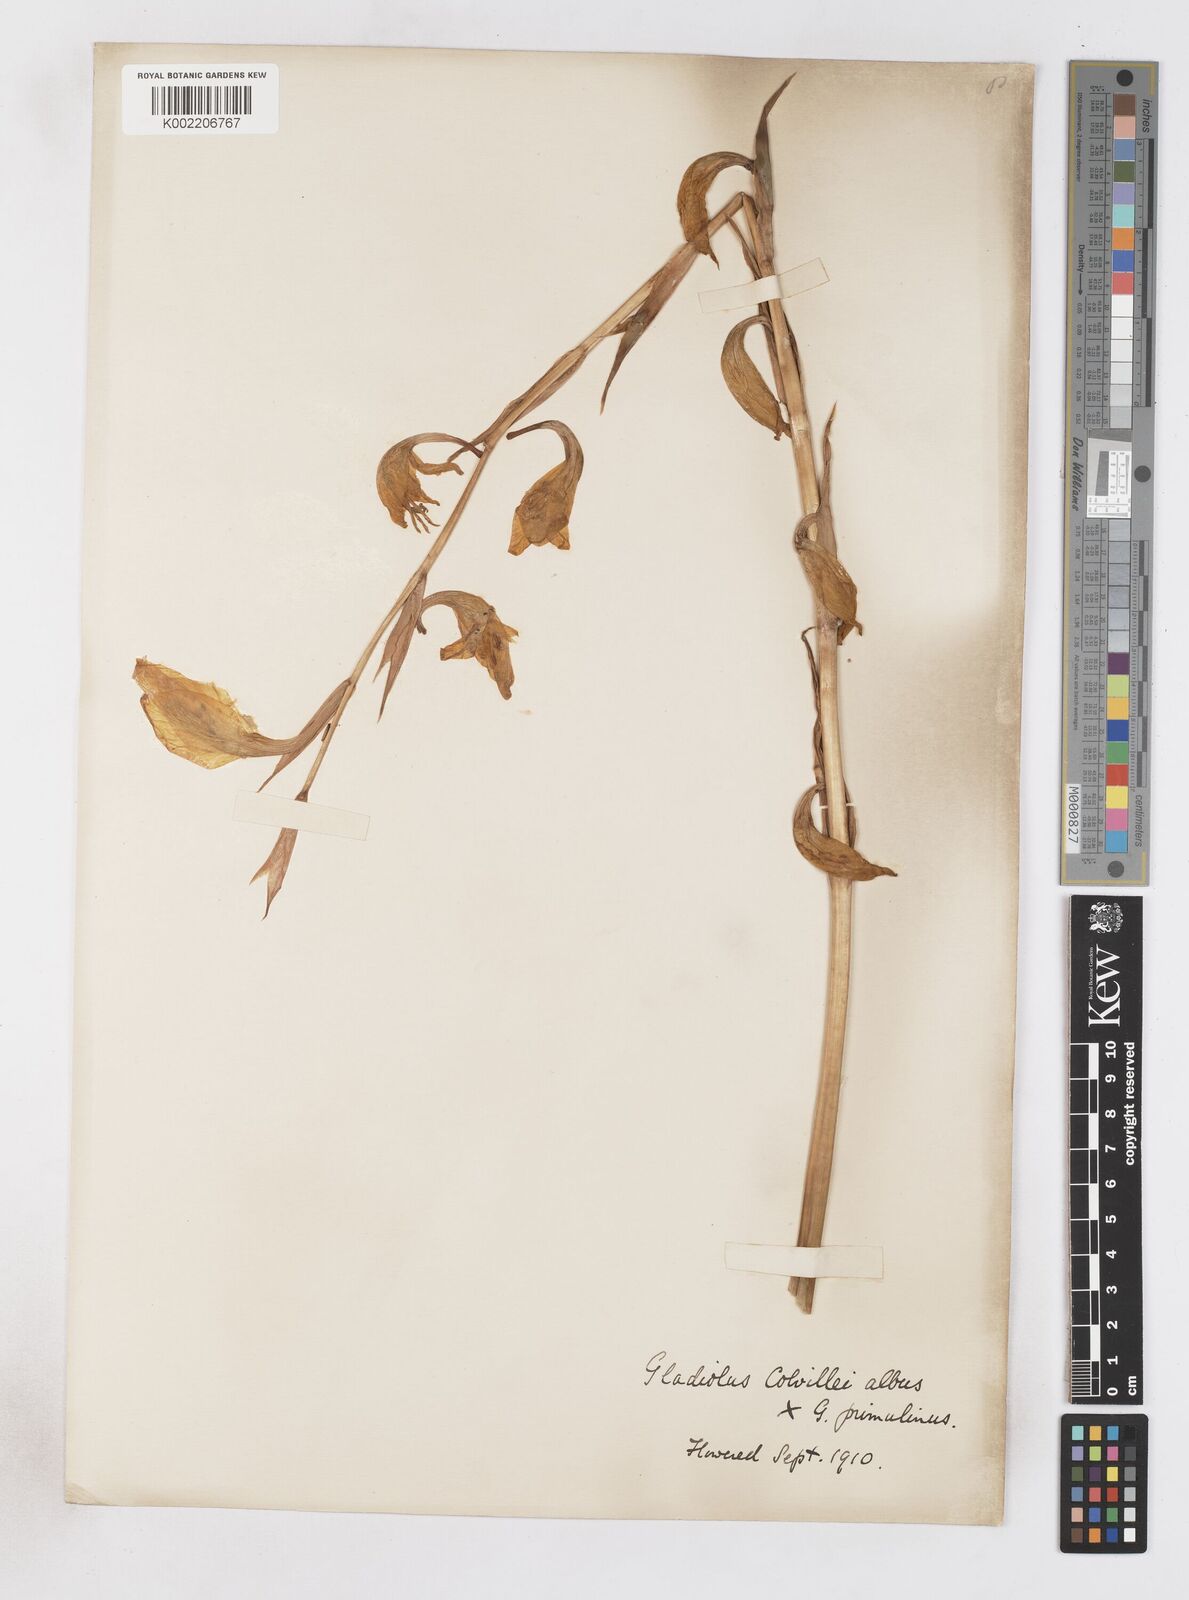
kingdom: Plantae
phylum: Tracheophyta
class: Liliopsida
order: Asparagales
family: Iridaceae
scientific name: Iridaceae
